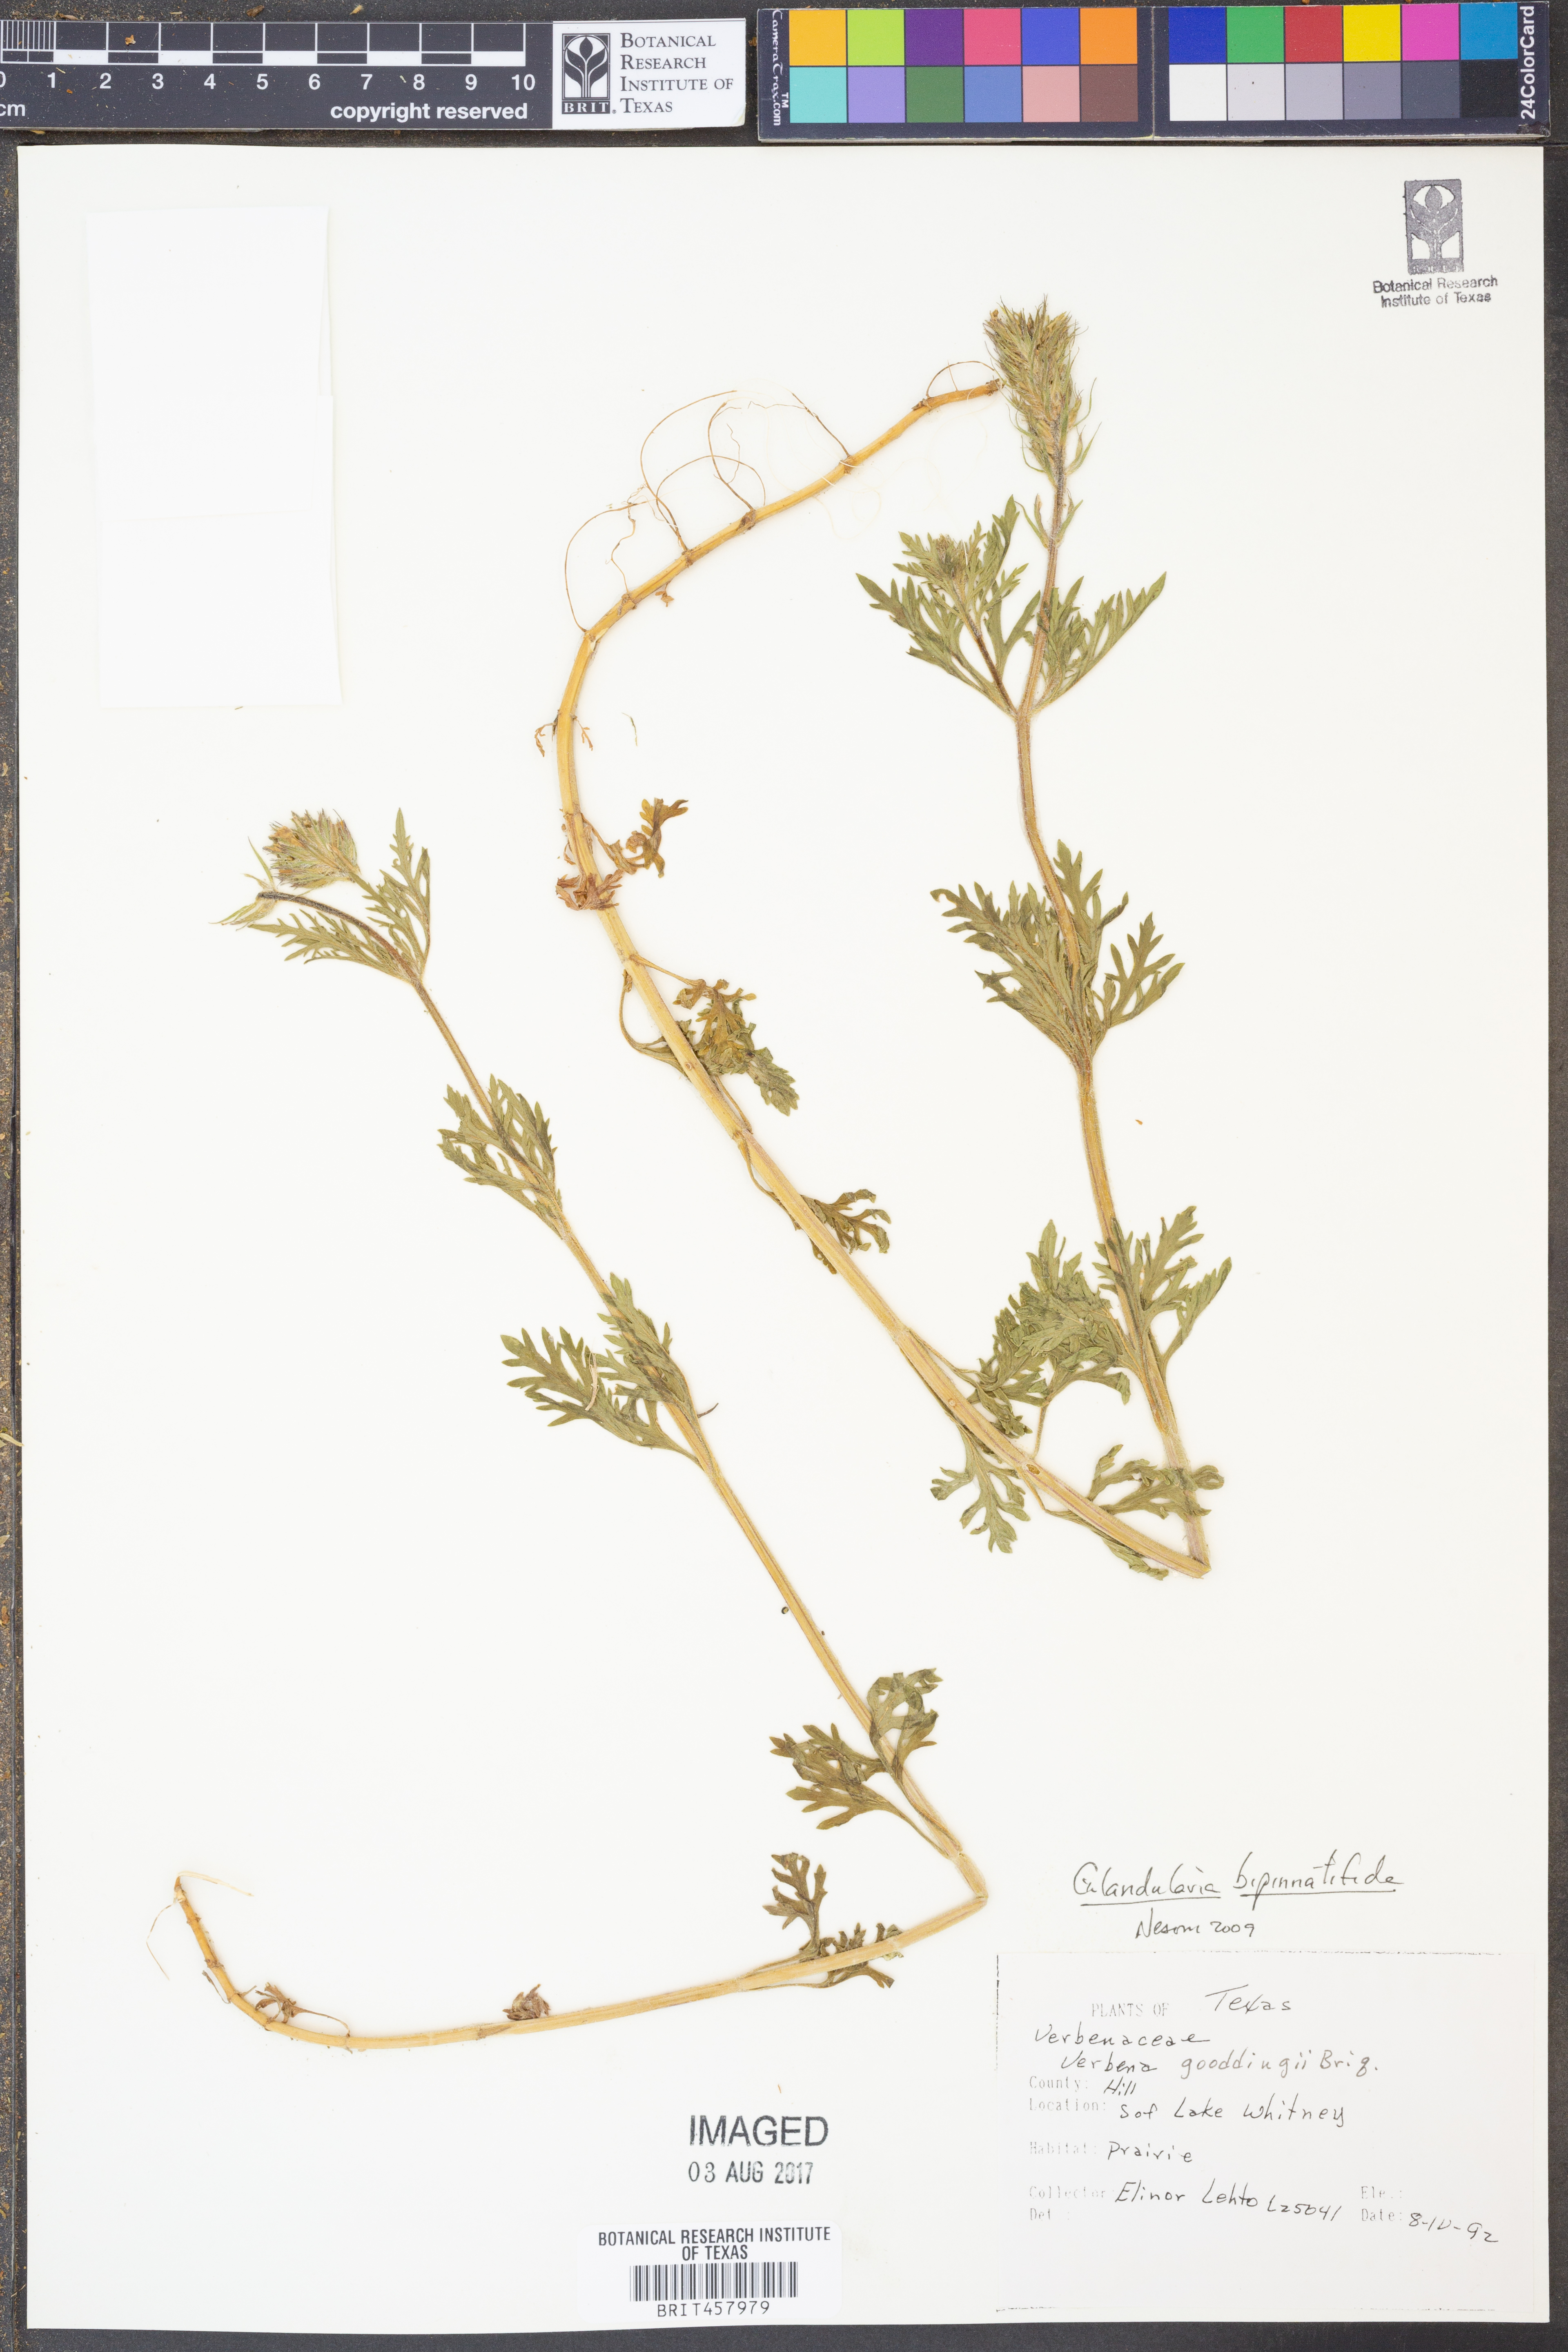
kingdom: Plantae
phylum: Tracheophyta
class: Magnoliopsida
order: Lamiales
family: Verbenaceae
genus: Verbena
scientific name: Verbena gooddingii
